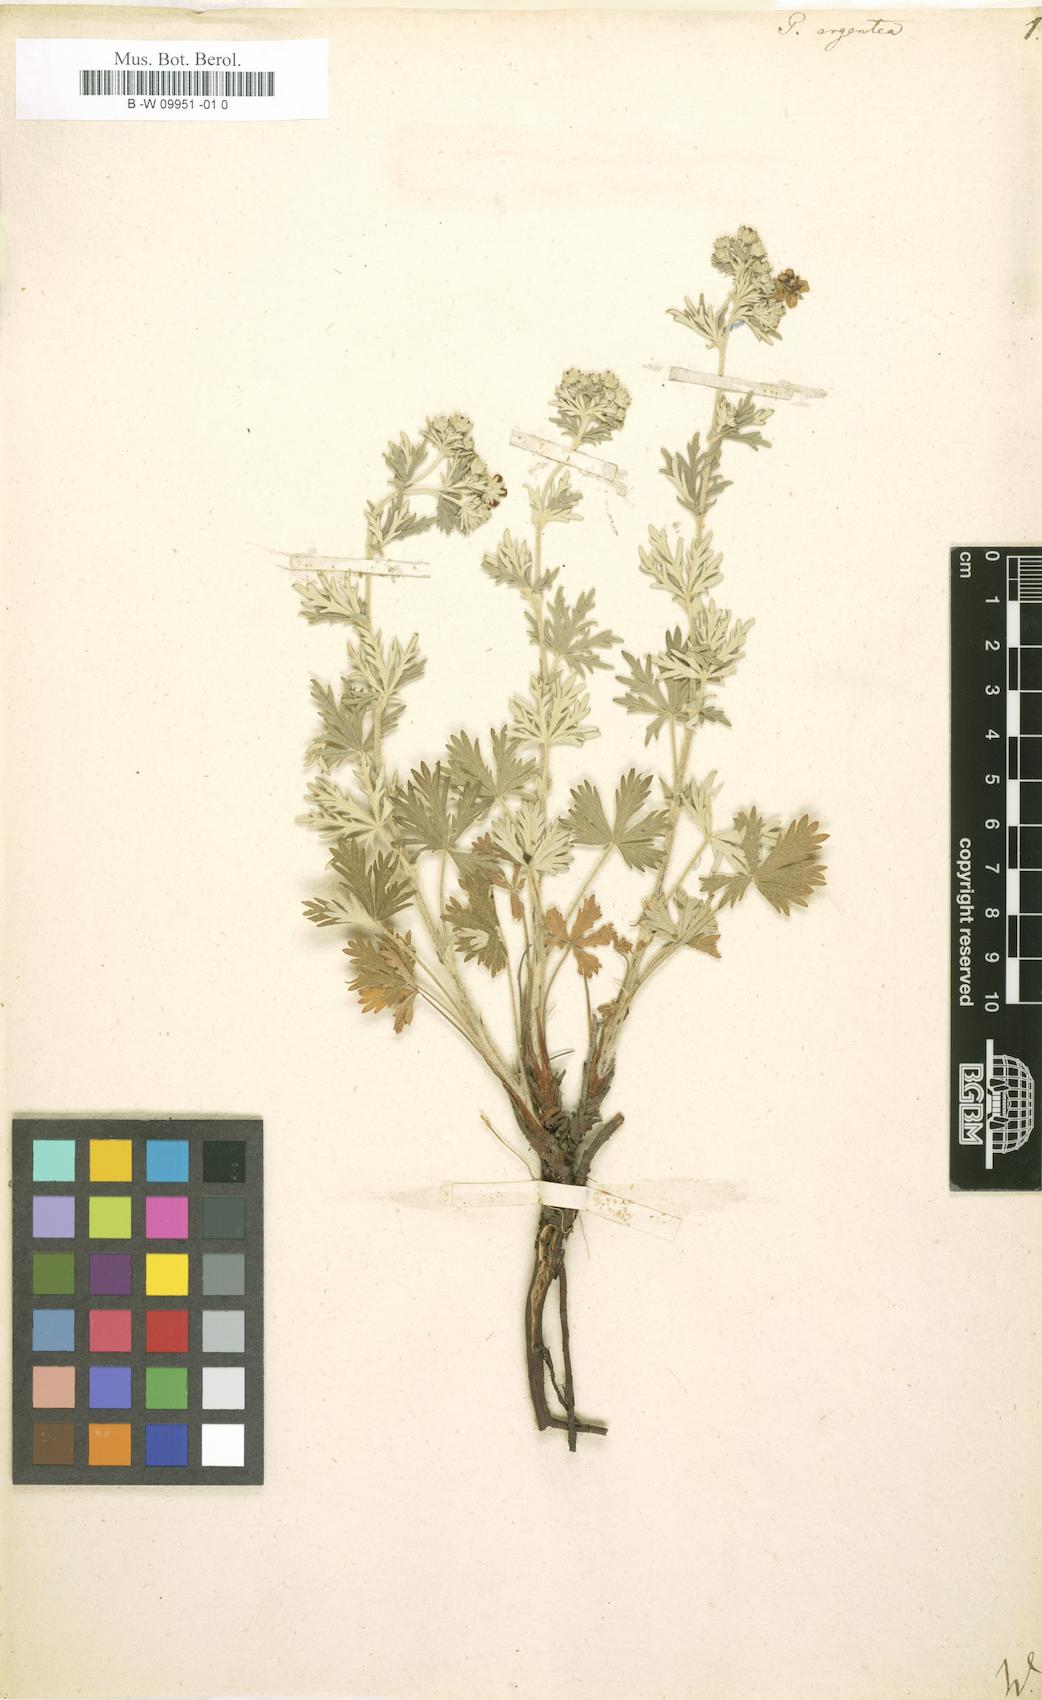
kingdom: Plantae
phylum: Tracheophyta
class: Magnoliopsida
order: Rosales
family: Rosaceae
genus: Potentilla
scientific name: Potentilla argentea
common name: Hoary cinquefoil
